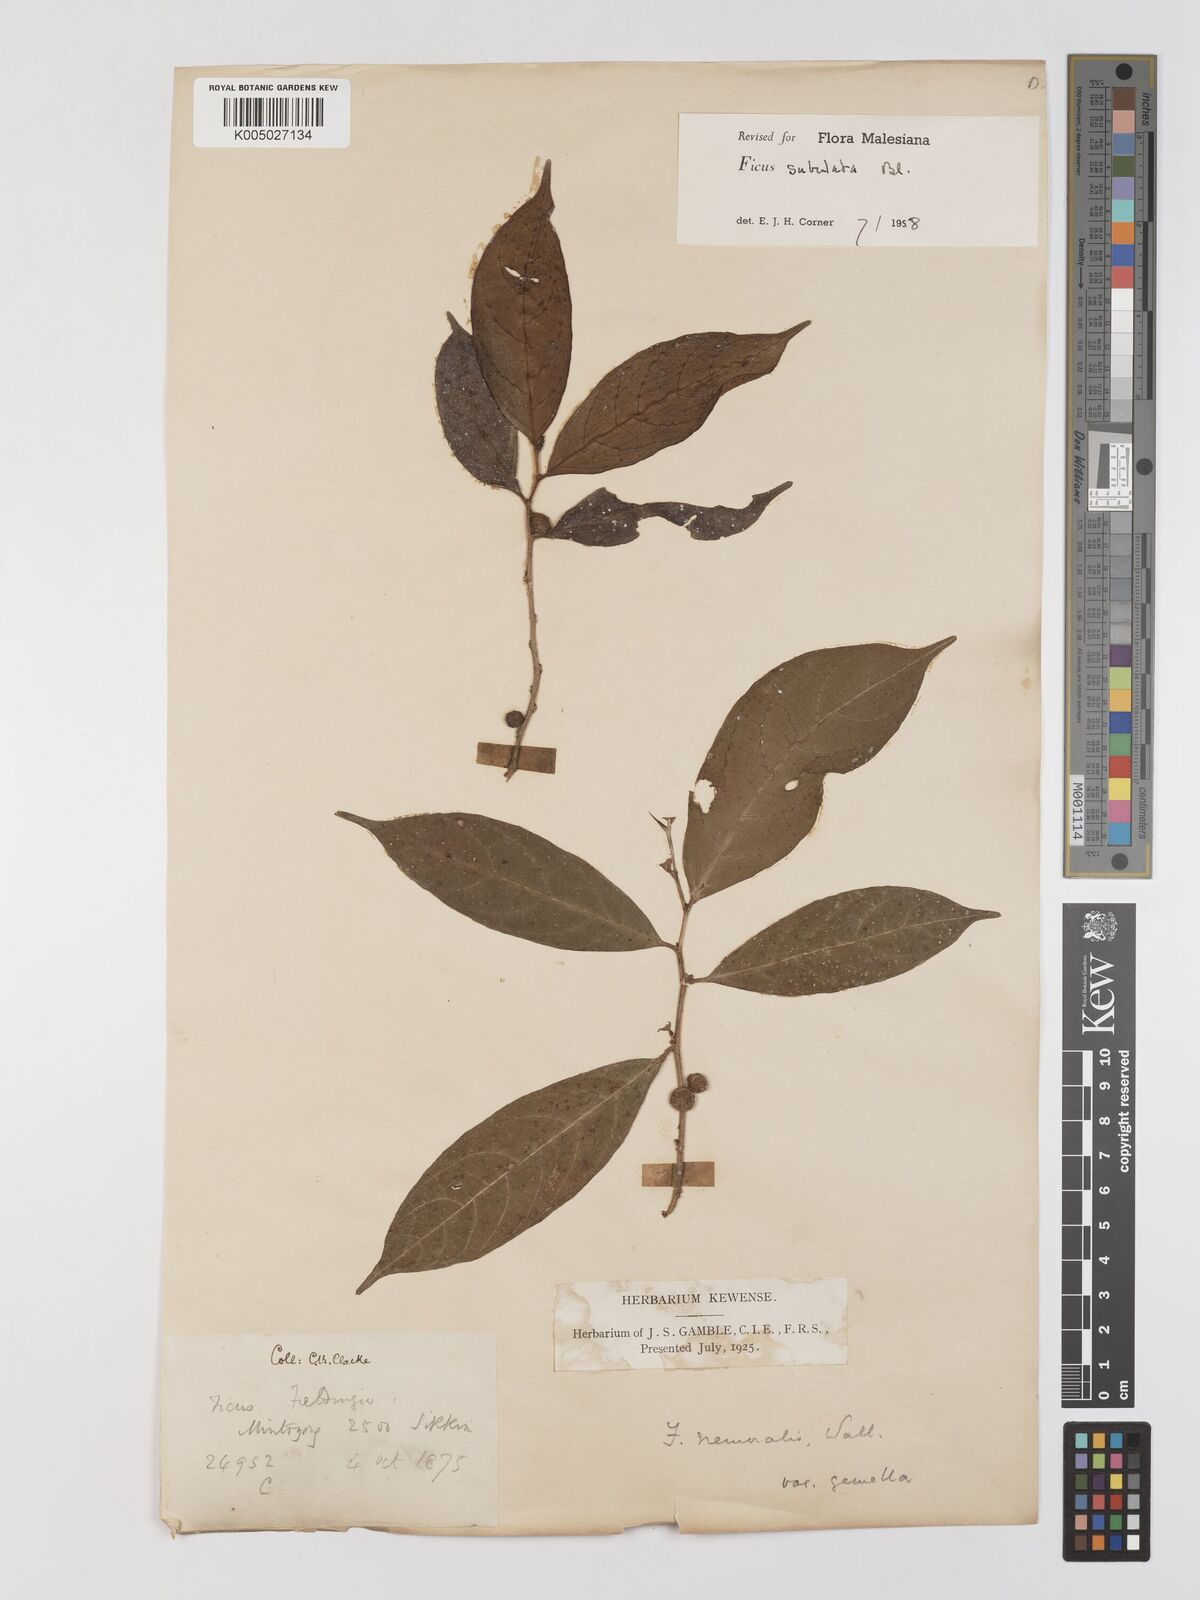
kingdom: Plantae
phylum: Tracheophyta
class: Magnoliopsida
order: Rosales
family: Moraceae
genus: Ficus
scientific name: Ficus subulata
